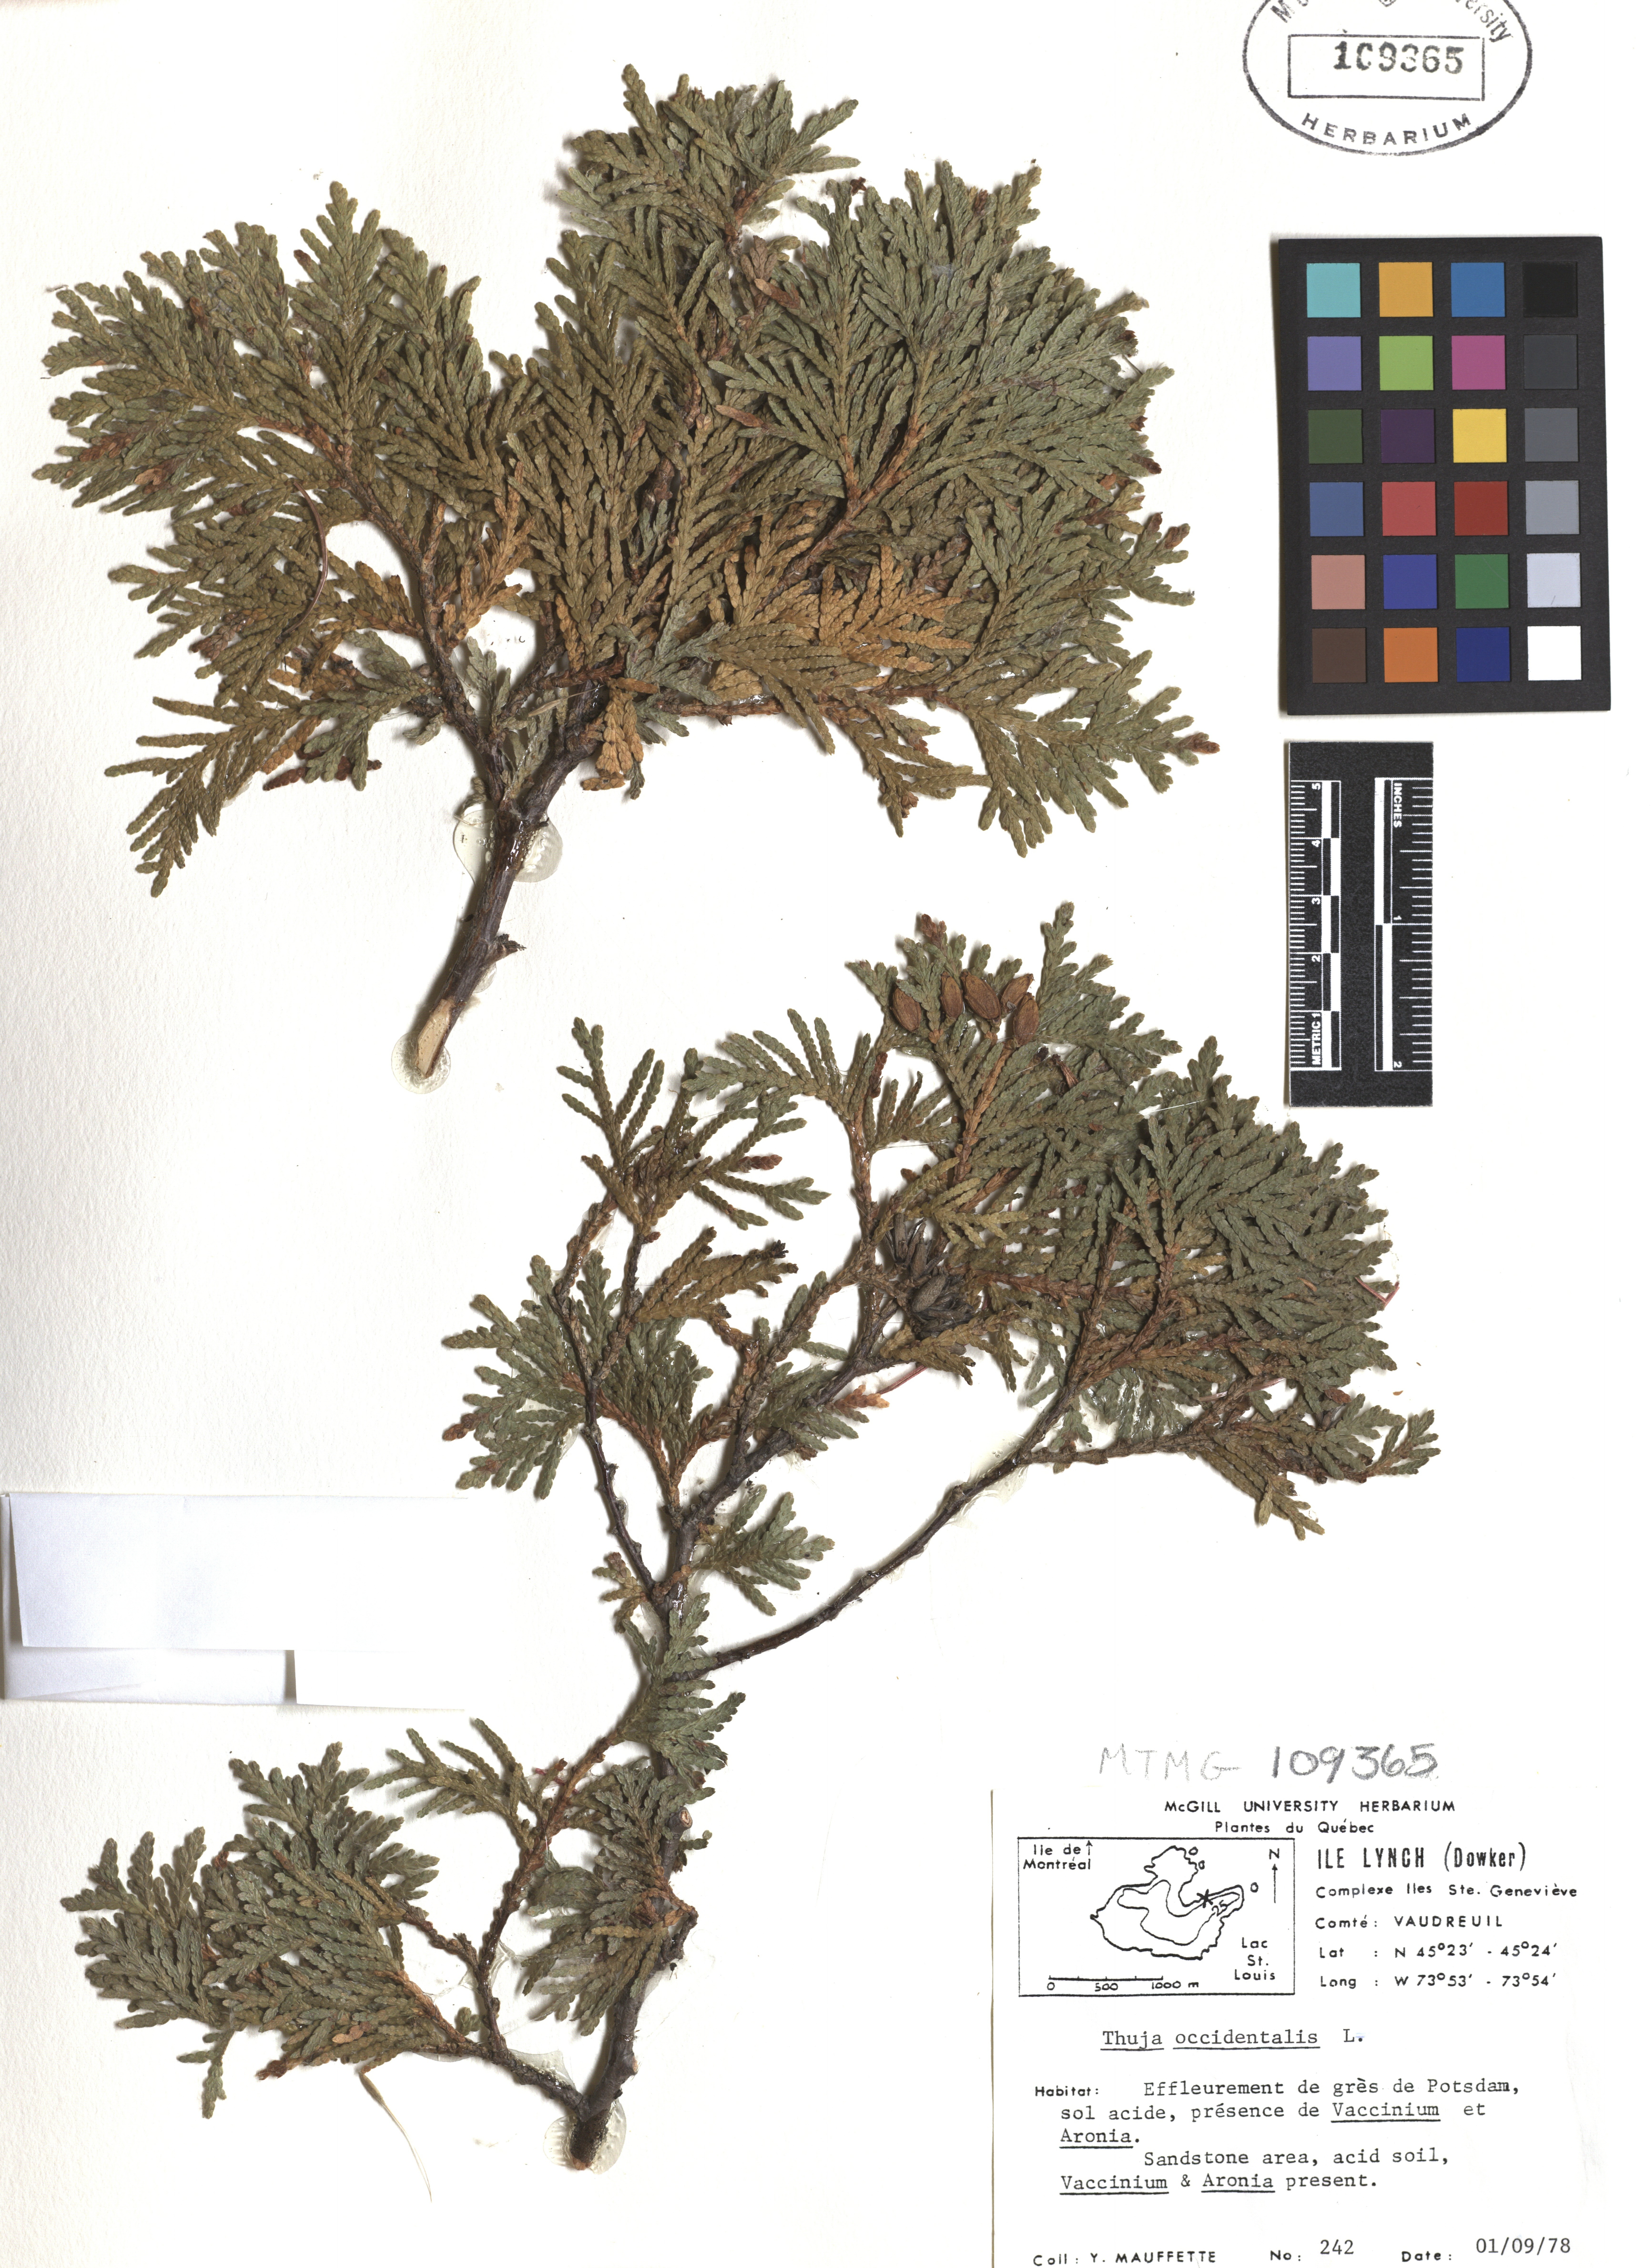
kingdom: Plantae
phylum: Tracheophyta
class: Pinopsida
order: Pinales
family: Cupressaceae
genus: Thuja
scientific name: Thuja occidentalis
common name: Northern white-cedar
